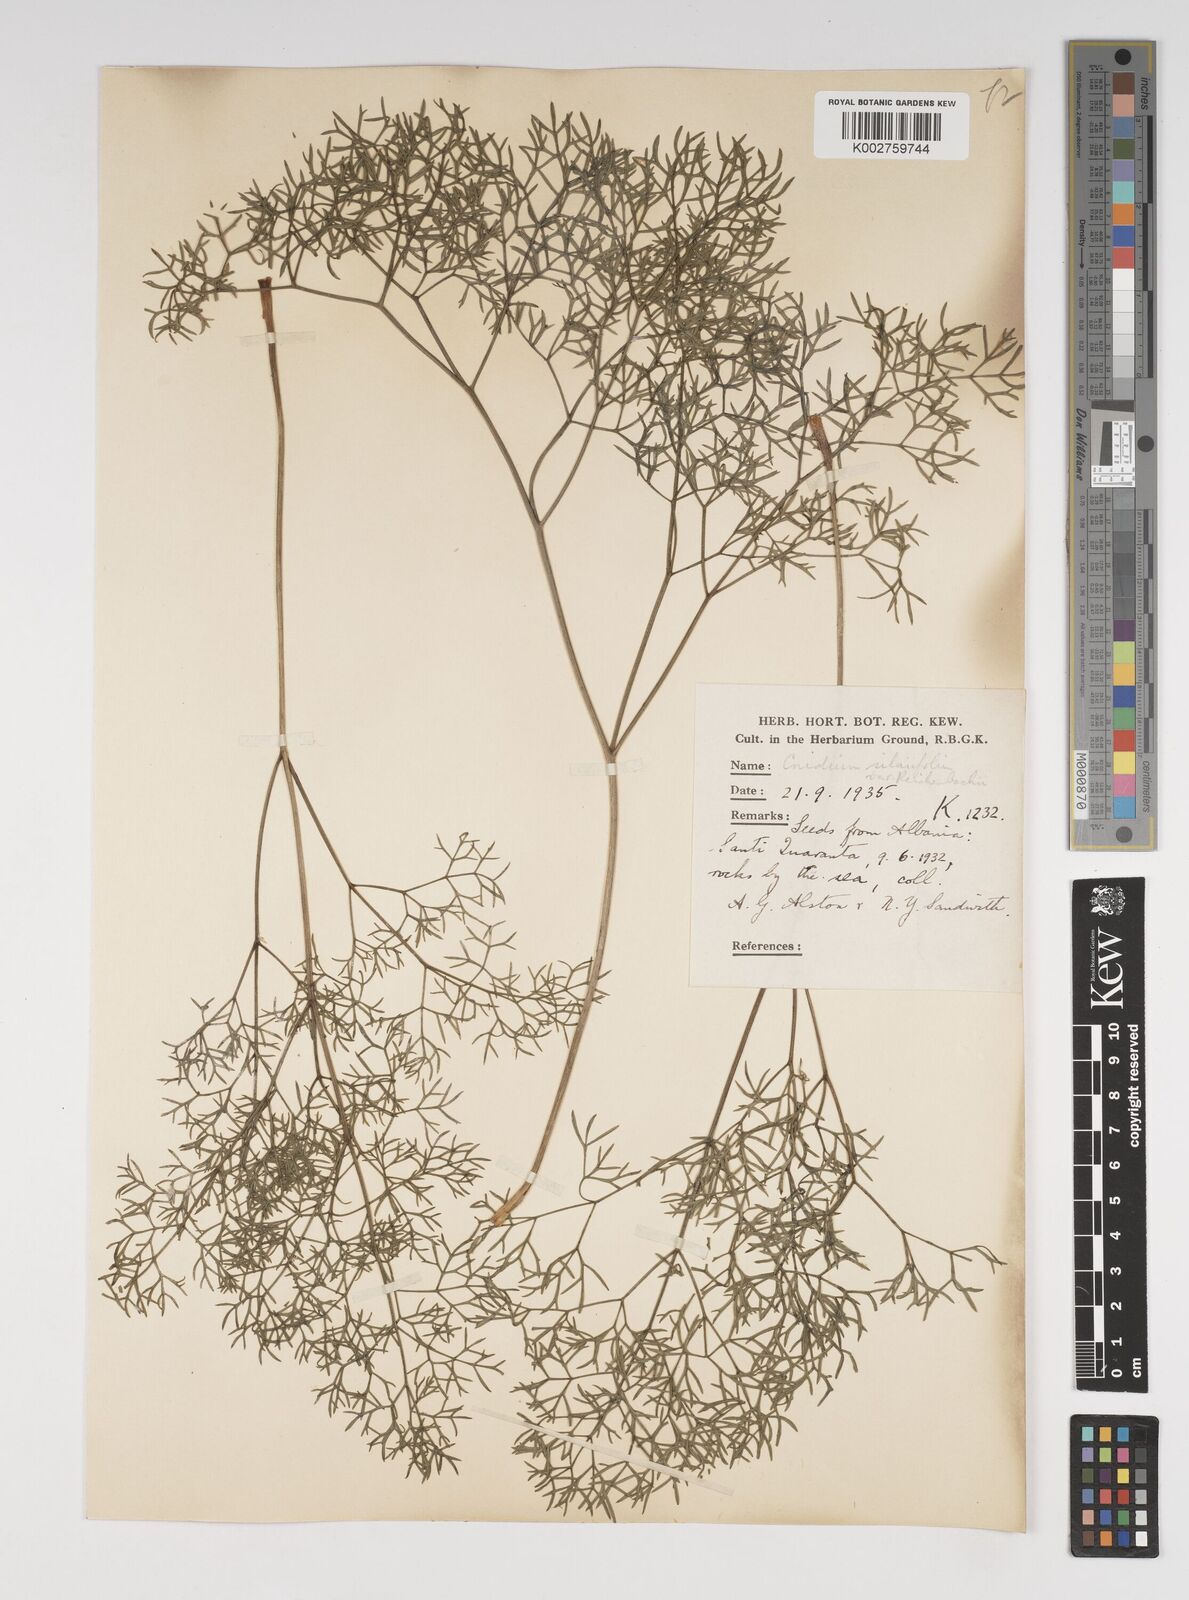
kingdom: Plantae
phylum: Tracheophyta
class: Magnoliopsida
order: Apiales
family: Apiaceae
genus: Katapsuxis
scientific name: Katapsuxis silaifolia
